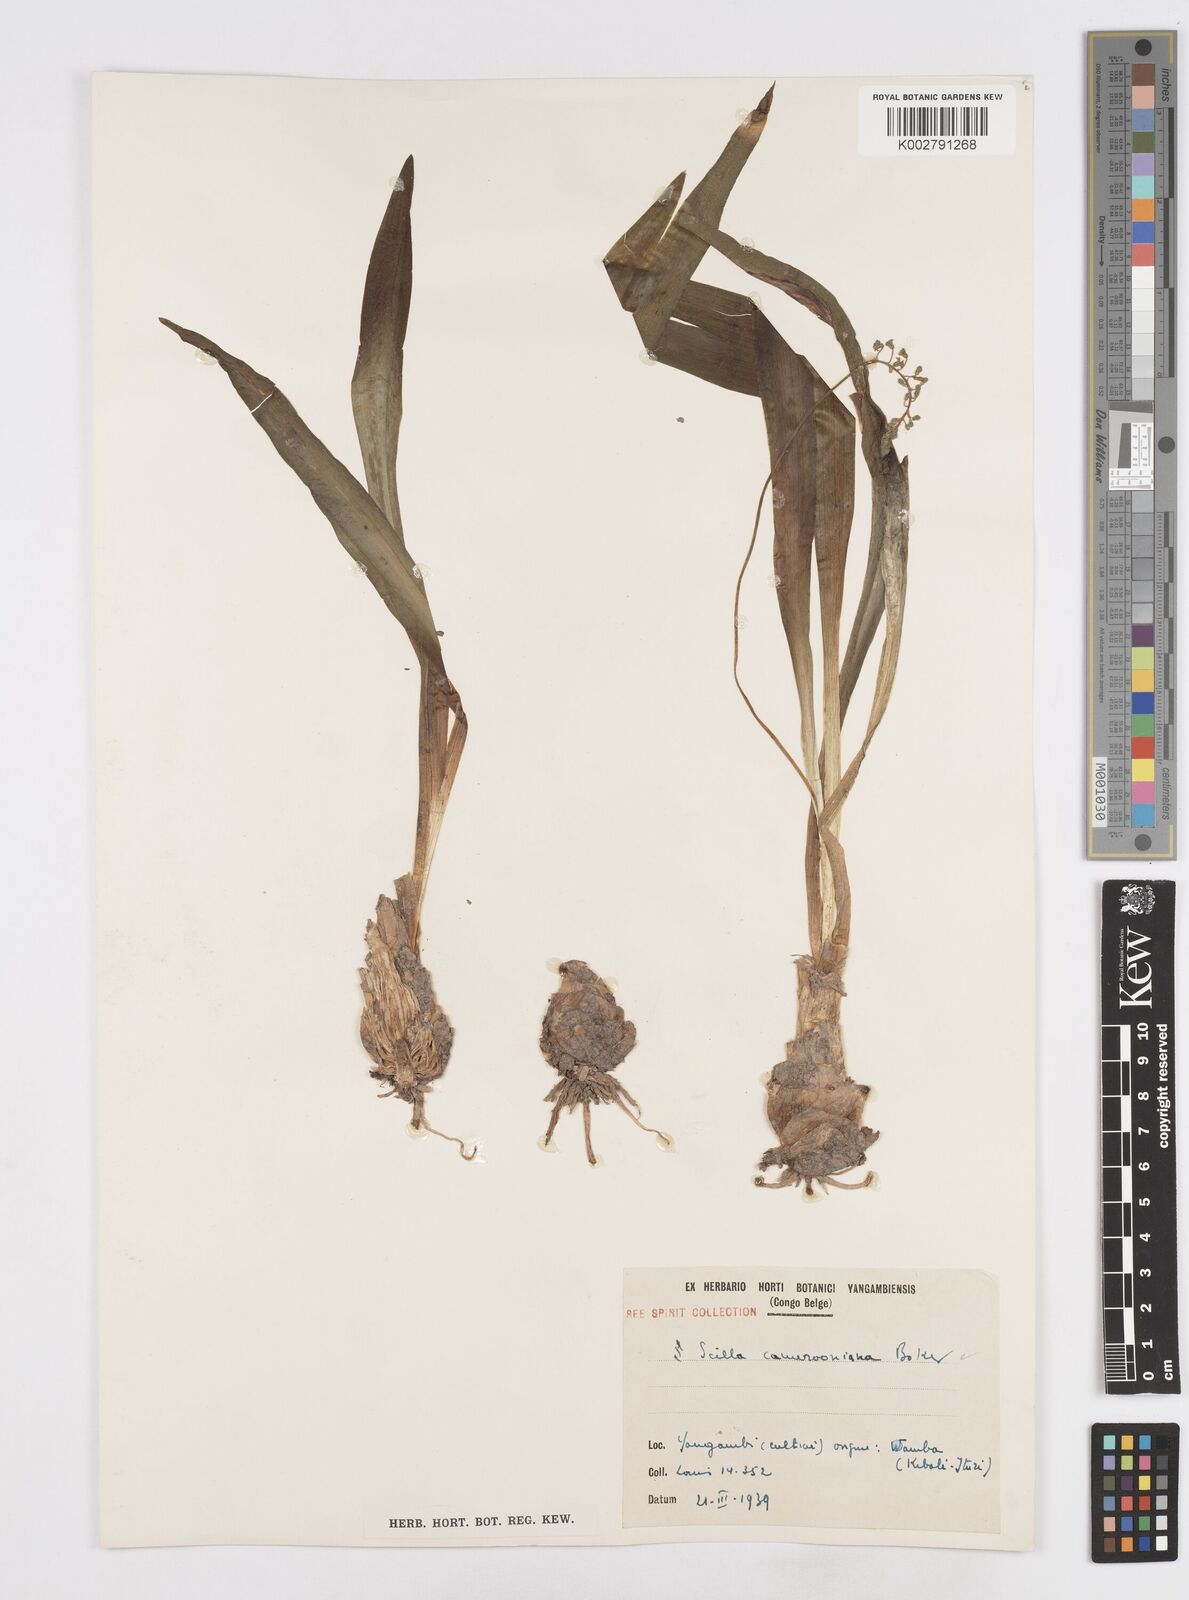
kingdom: Plantae
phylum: Tracheophyta
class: Liliopsida
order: Asparagales
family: Asparagaceae
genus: Ledebouria
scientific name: Ledebouria camerooniana
